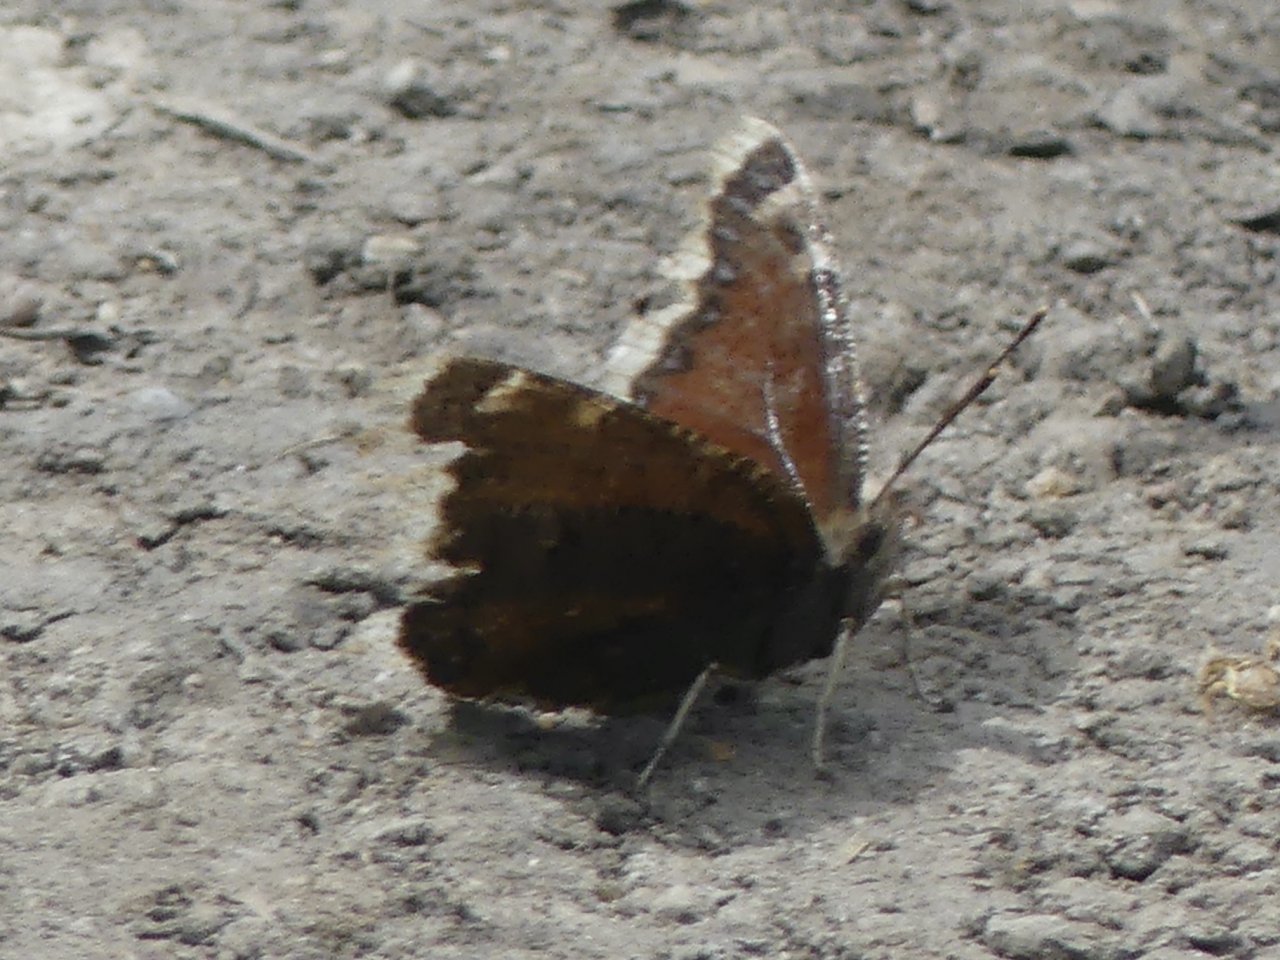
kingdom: Animalia
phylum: Arthropoda
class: Insecta
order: Lepidoptera
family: Nymphalidae
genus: Nymphalis
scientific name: Nymphalis antiopa
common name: Mourning Cloak
